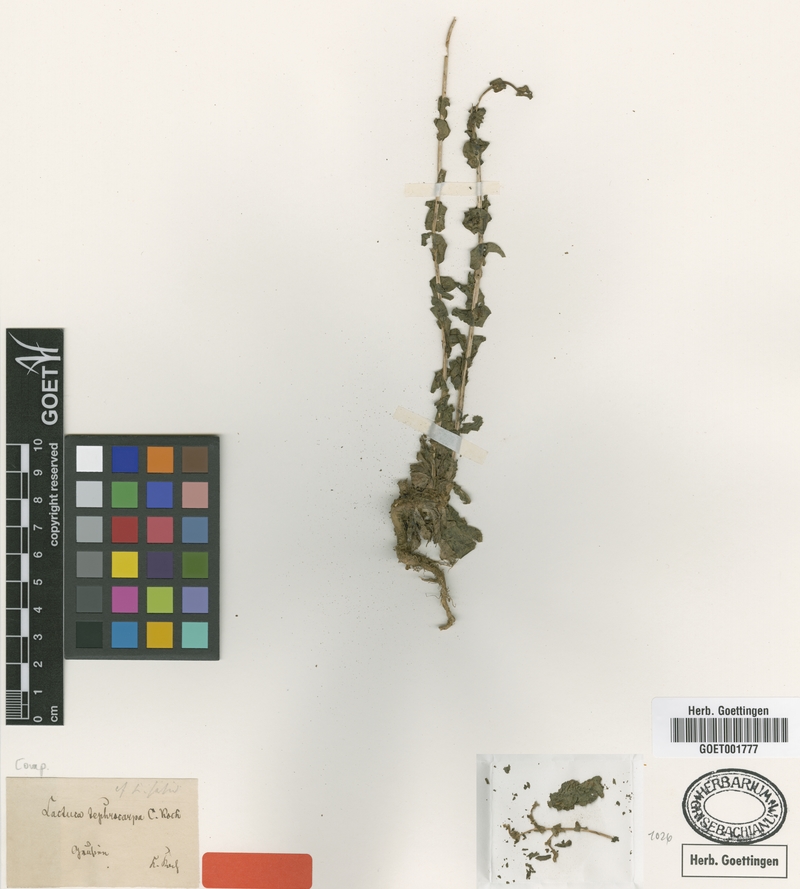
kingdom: Plantae
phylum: Tracheophyta
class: Magnoliopsida
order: Asterales
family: Asteraceae
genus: Lactuca
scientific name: Lactuca serriola
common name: Prickly lettuce
